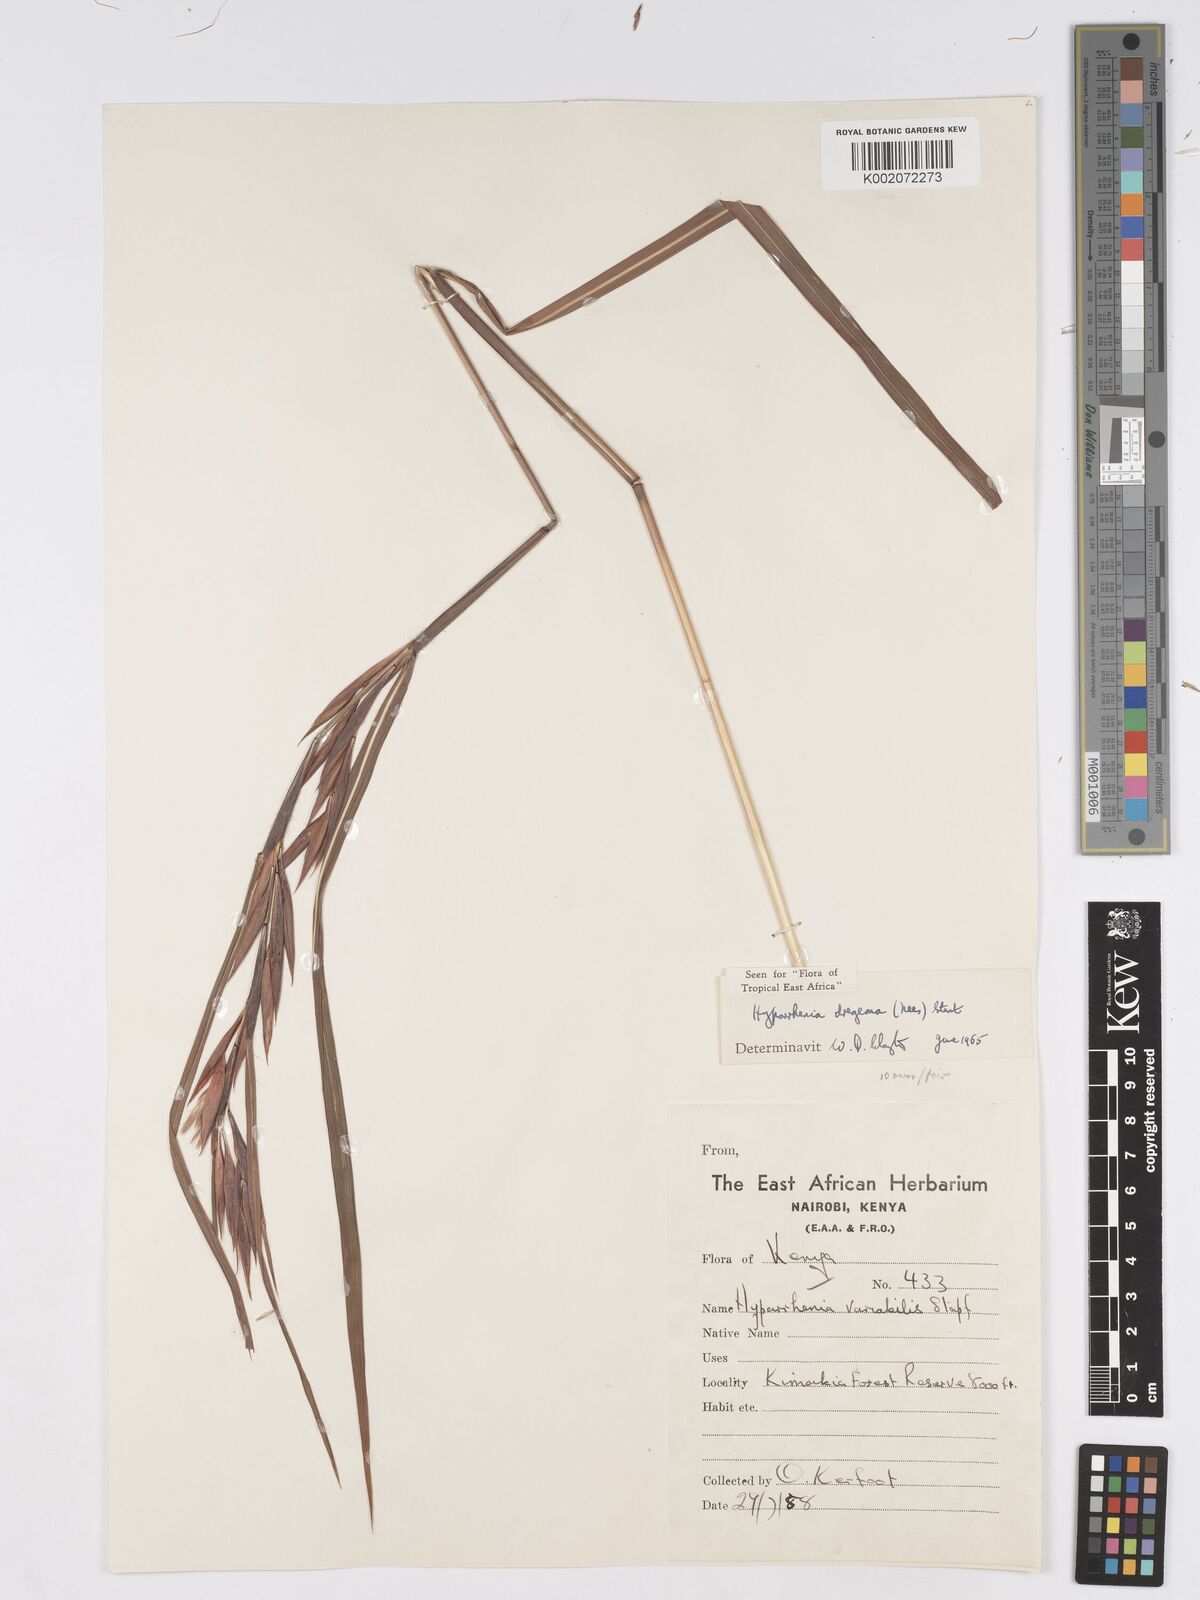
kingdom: Plantae
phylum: Tracheophyta
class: Liliopsida
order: Poales
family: Poaceae
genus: Hyparrhenia
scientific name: Hyparrhenia dregeana
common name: Silky thatching grass
